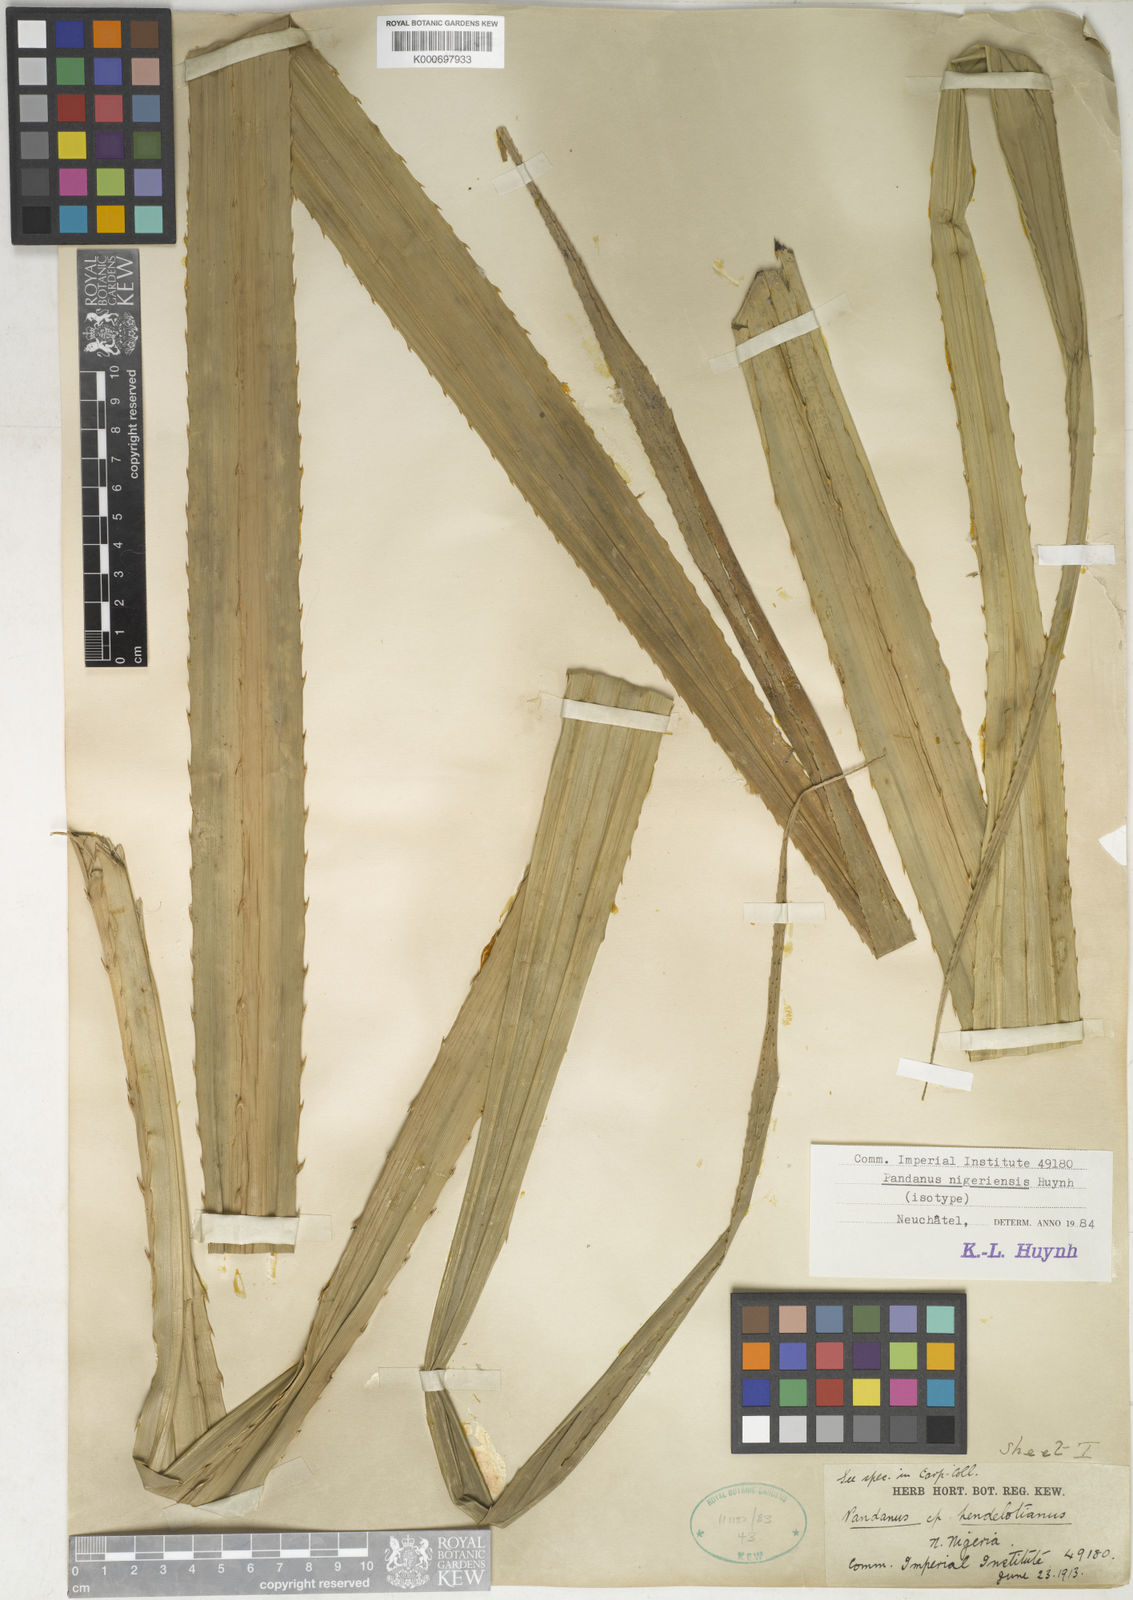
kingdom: Plantae
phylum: Tracheophyta
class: Liliopsida
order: Pandanales
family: Pandanaceae
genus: Pandanus
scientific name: Pandanus
